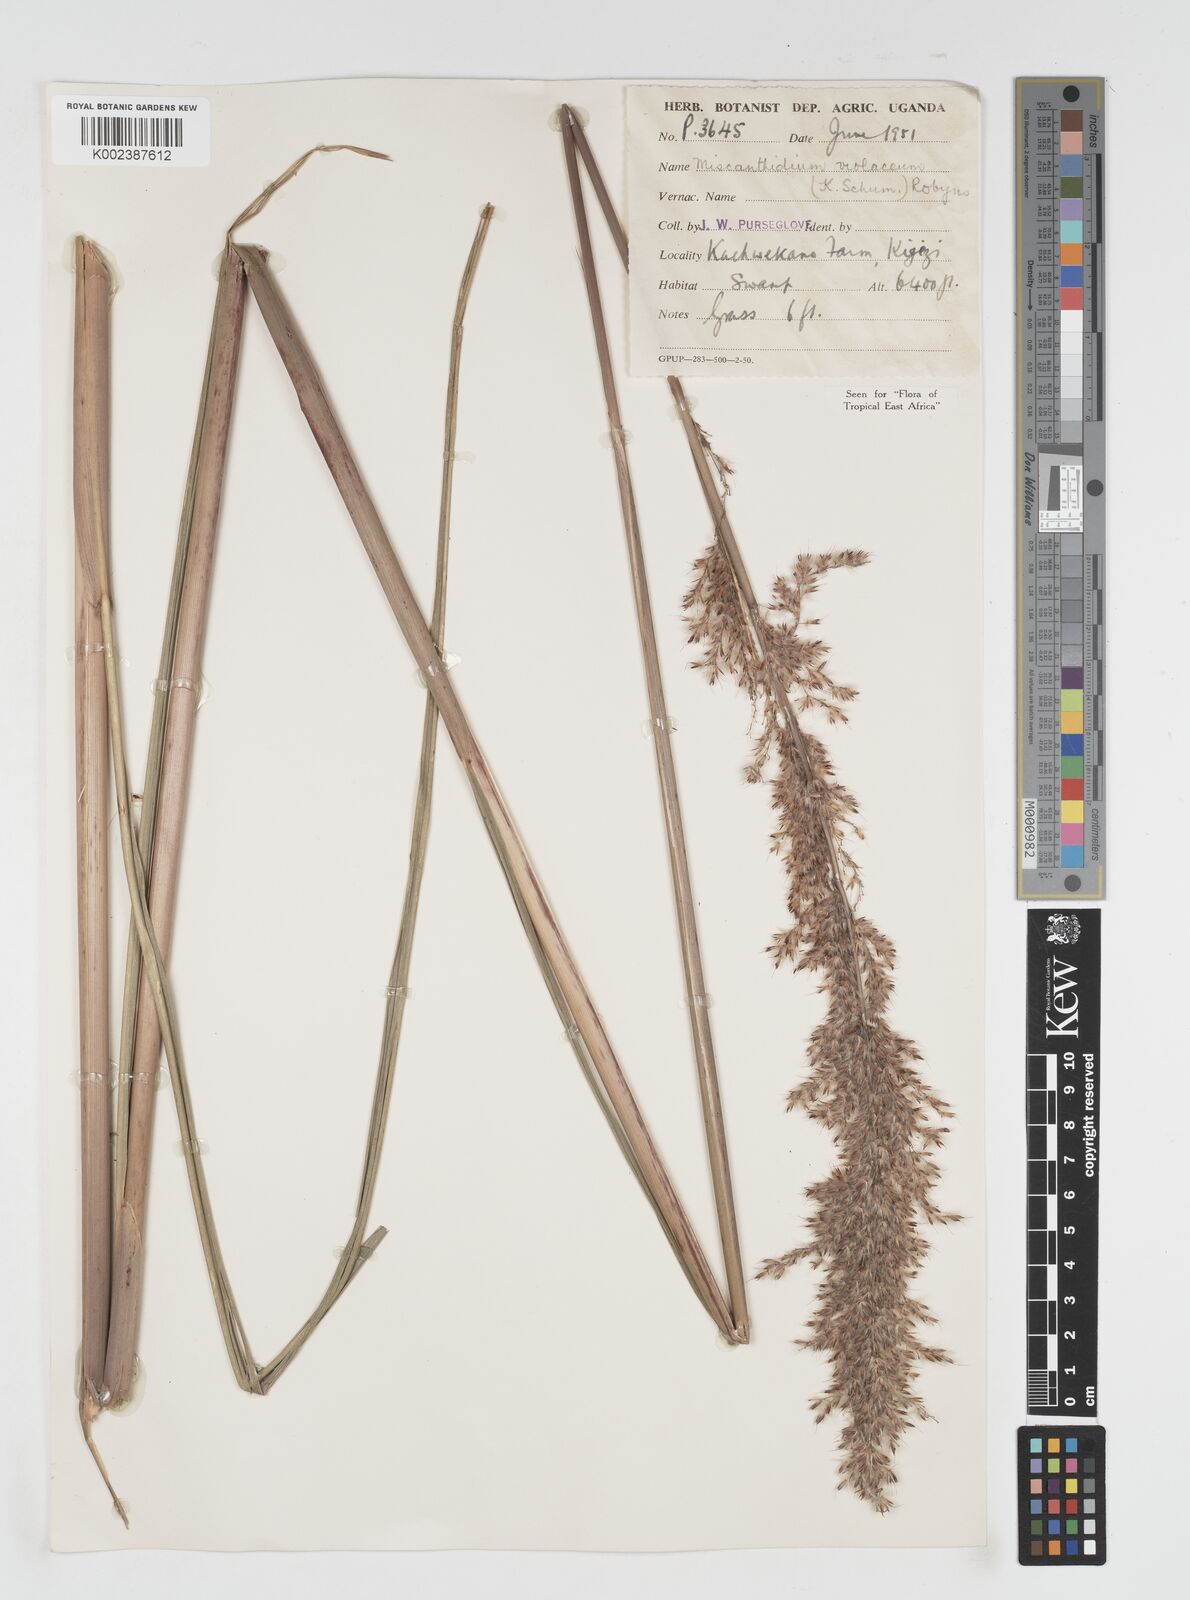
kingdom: Plantae
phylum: Tracheophyta
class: Liliopsida
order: Poales
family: Poaceae
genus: Miscanthidium
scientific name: Miscanthidium violaceum
